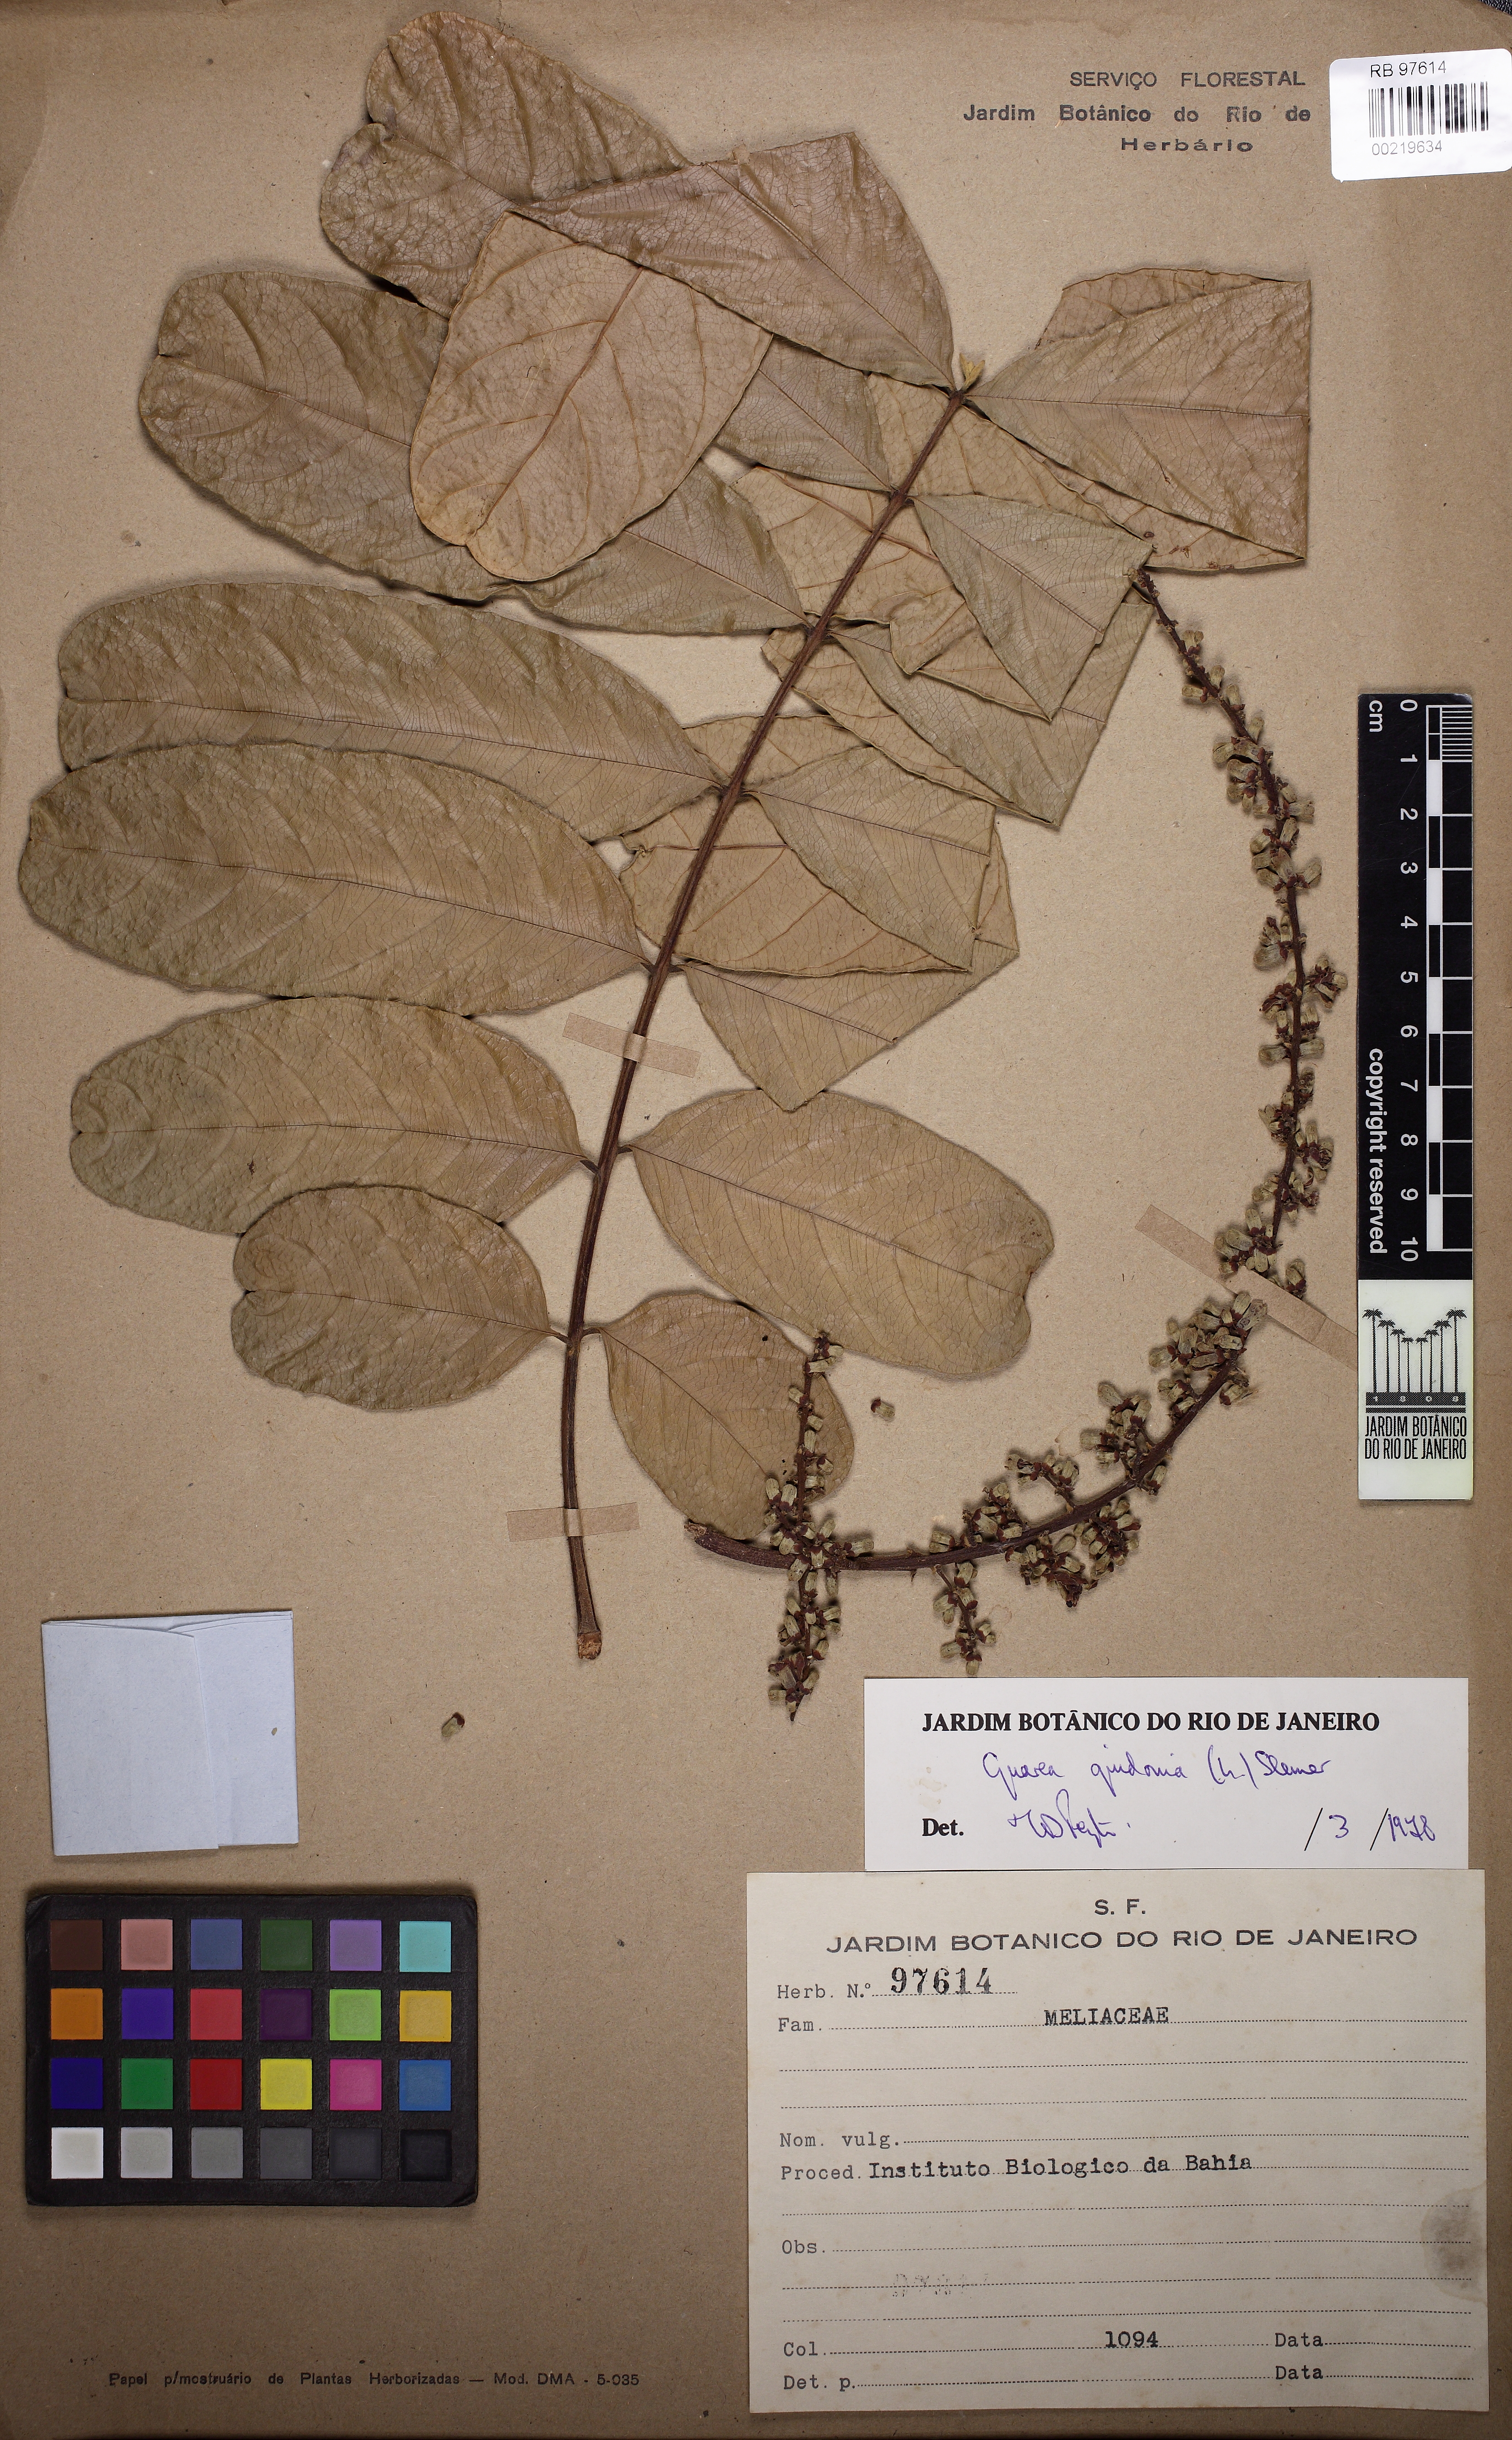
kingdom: Plantae
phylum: Tracheophyta
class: Magnoliopsida
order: Sapindales
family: Meliaceae
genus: Guarea
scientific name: Guarea guidonia
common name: American muskwood
